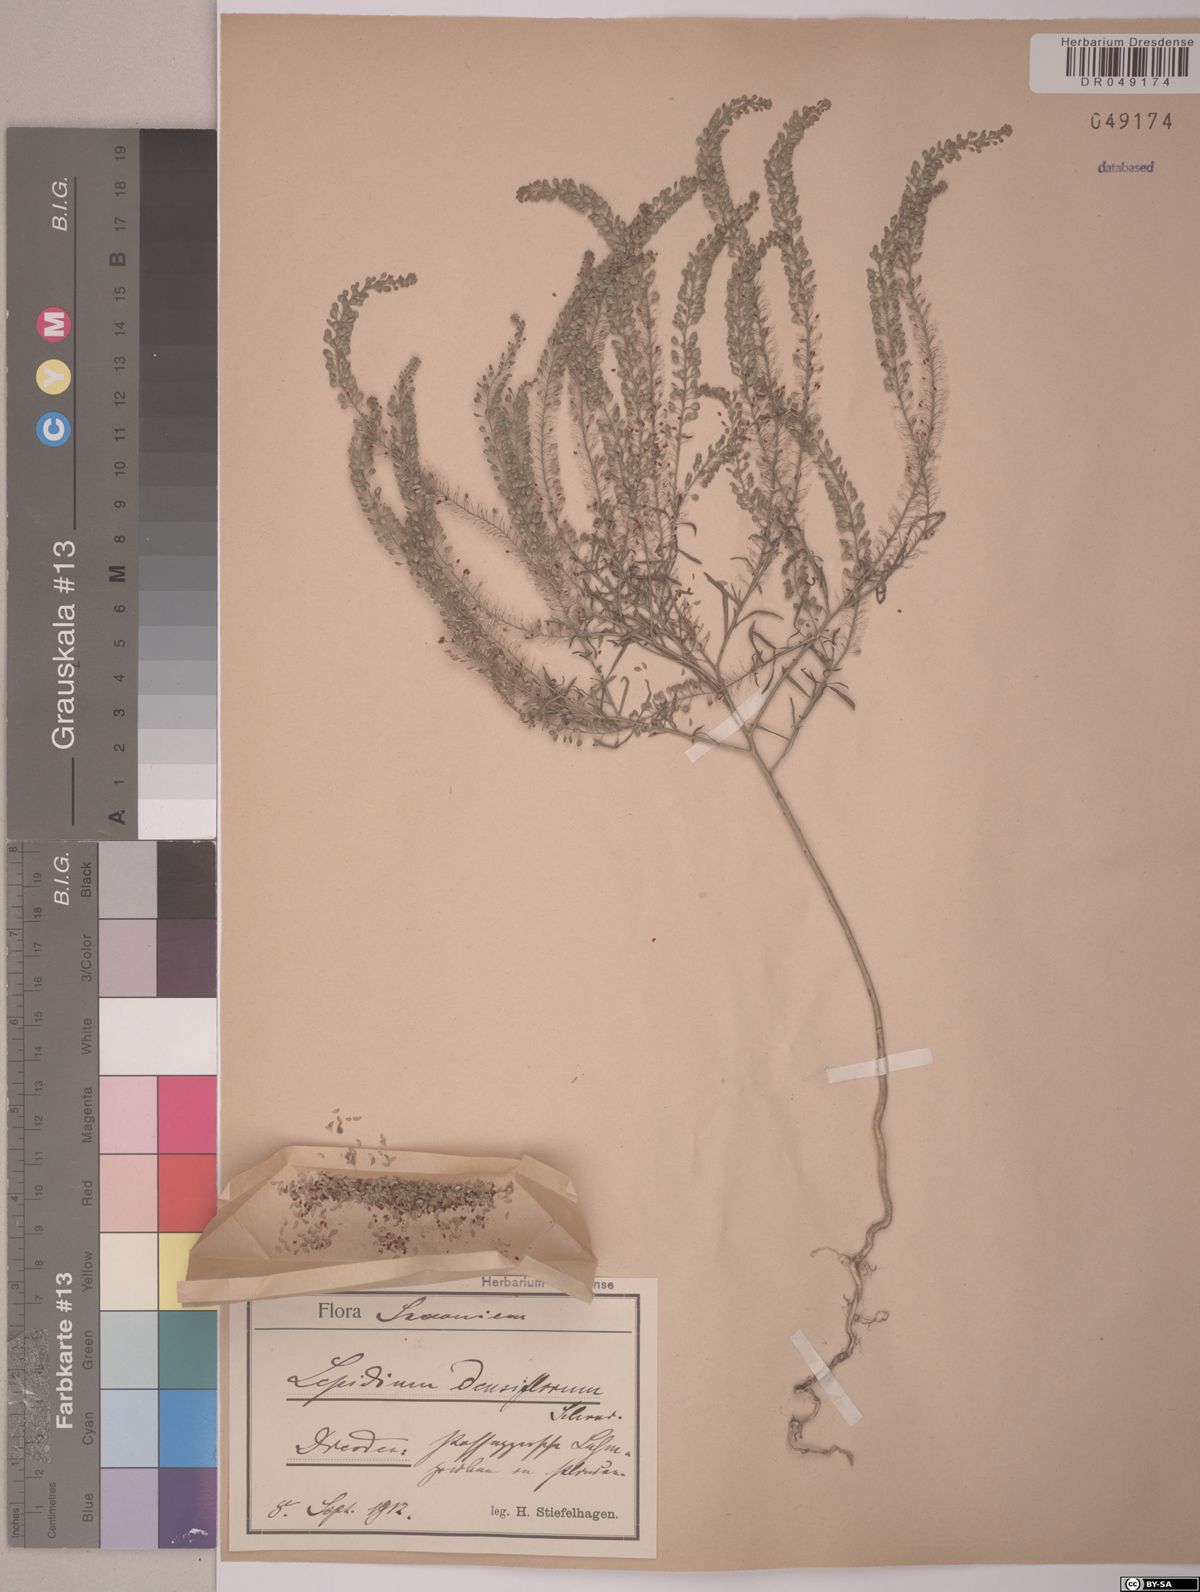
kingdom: Plantae
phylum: Tracheophyta
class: Magnoliopsida
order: Brassicales
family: Brassicaceae
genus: Lepidium
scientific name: Lepidium densiflorum
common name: Miner's pepperwort
